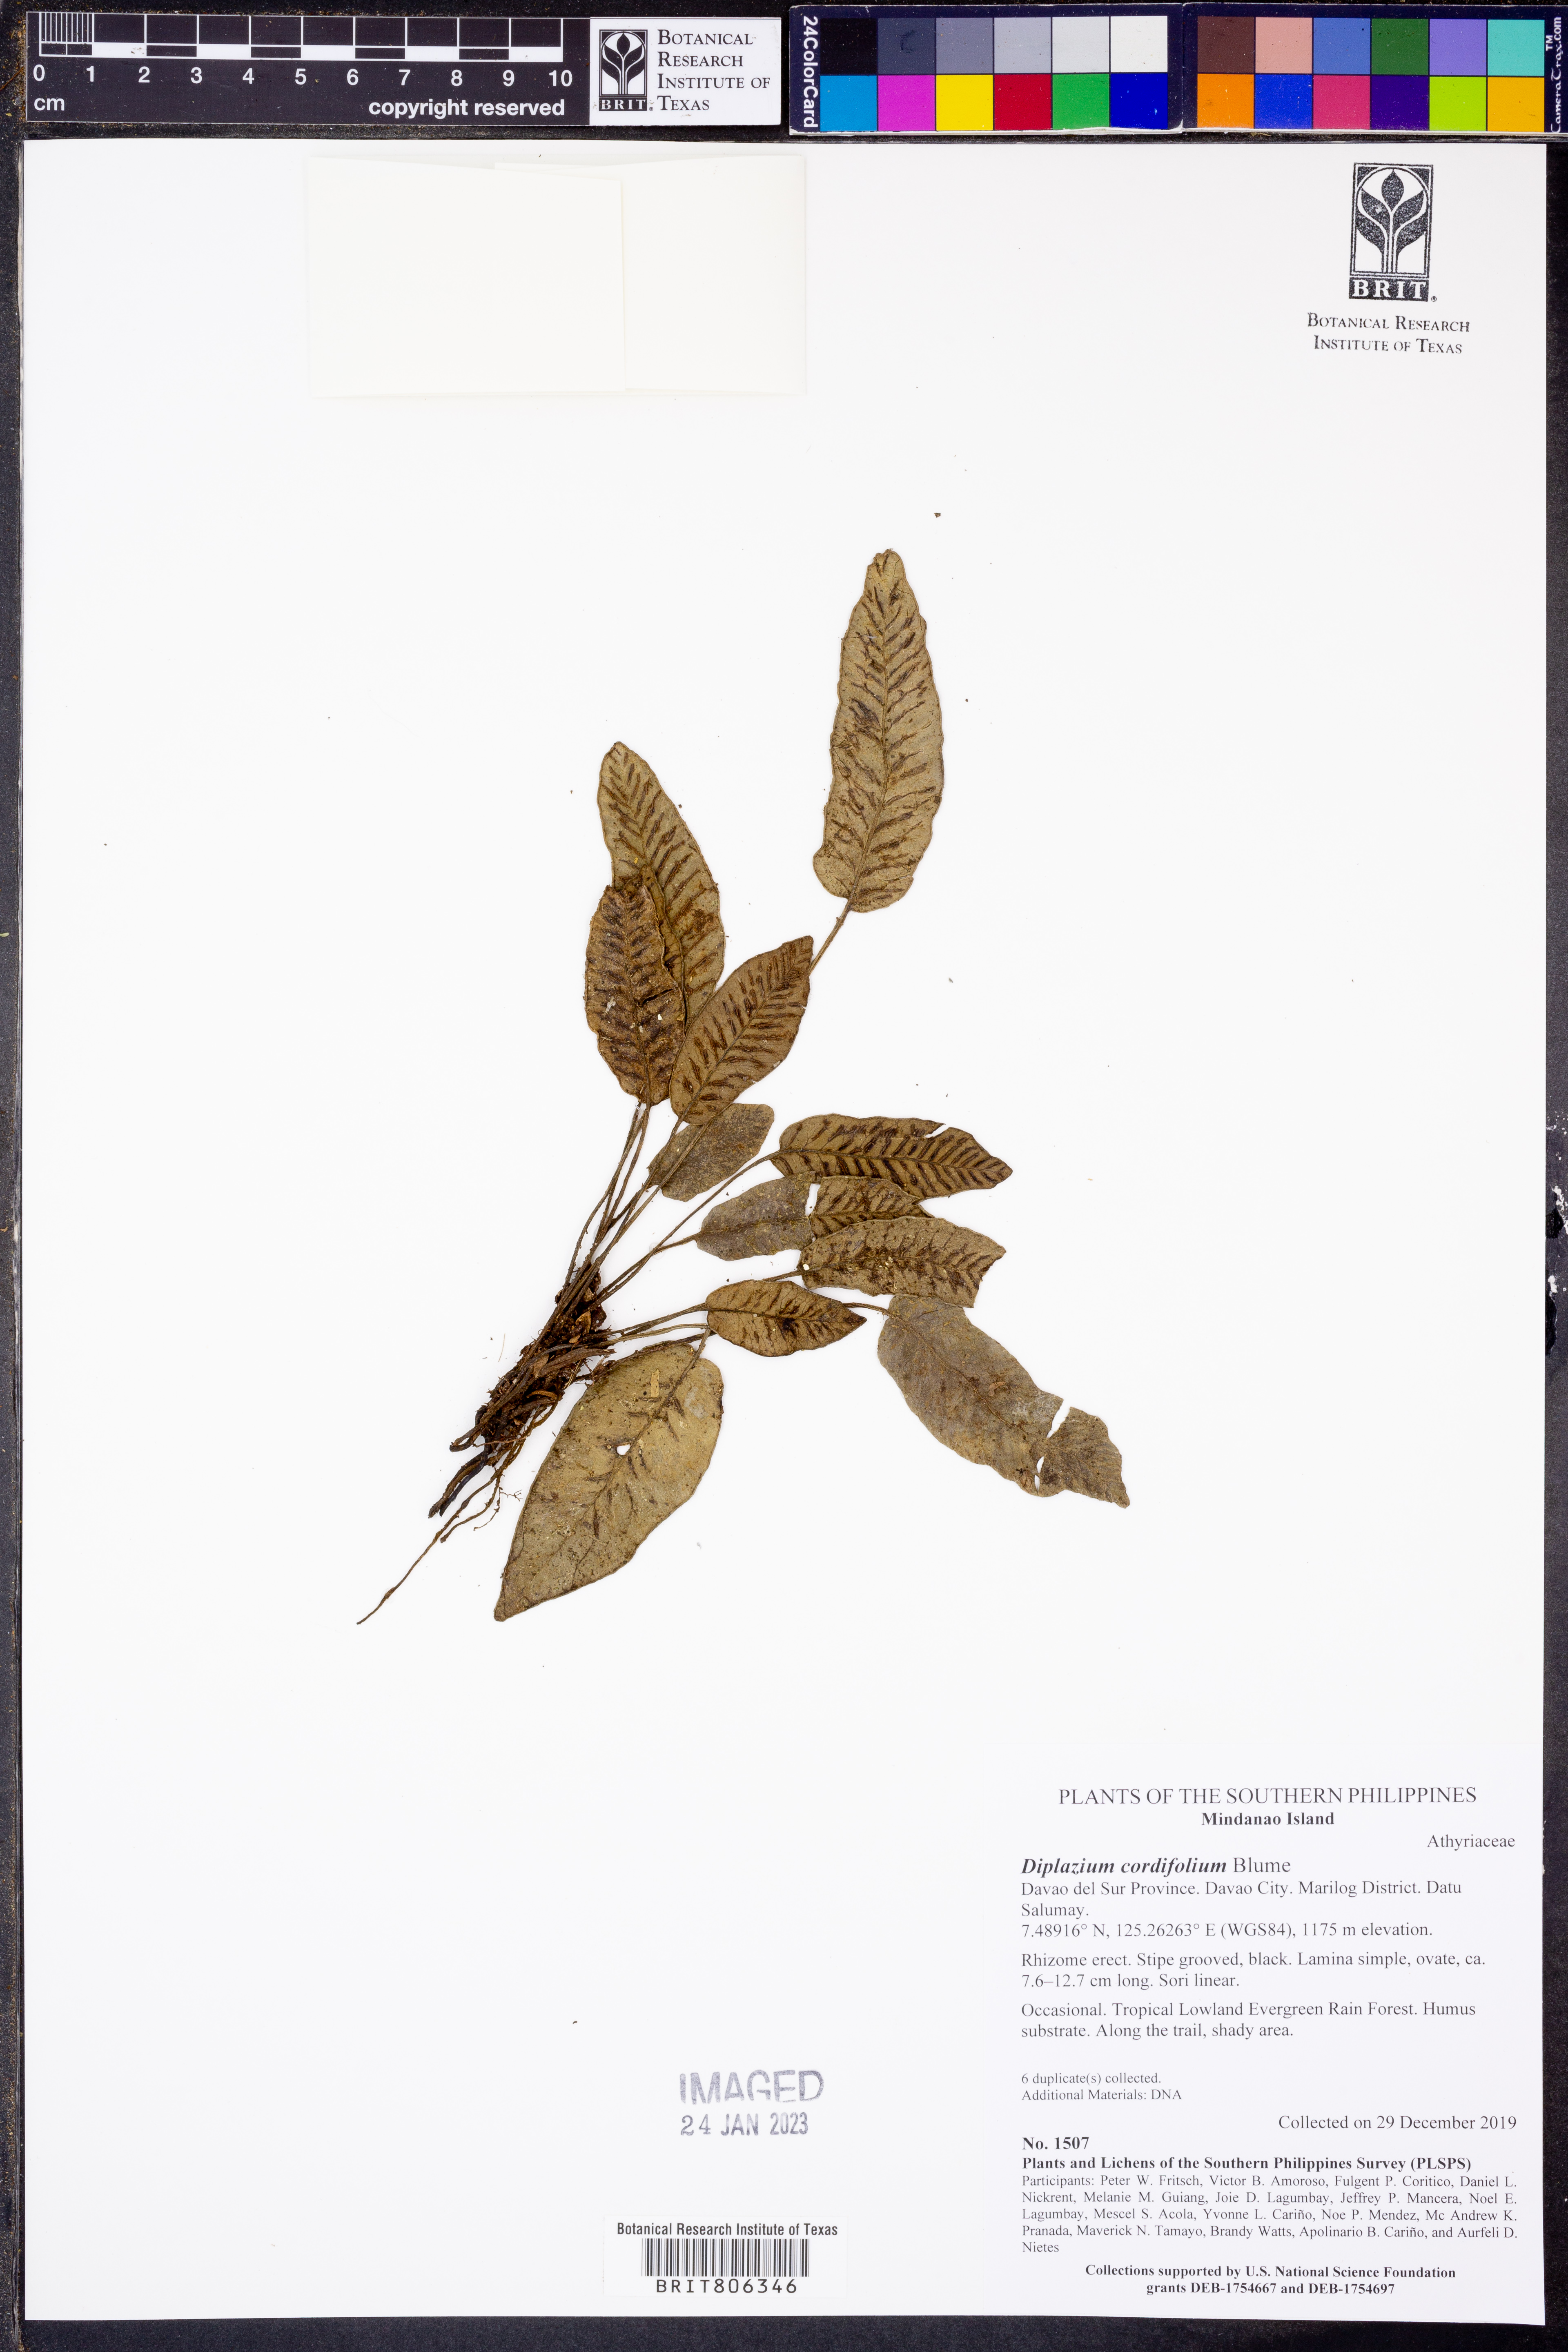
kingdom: Plantae
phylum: Tracheophyta
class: Polypodiopsida
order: Polypodiales
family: Athyriaceae
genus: Diplazium
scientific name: Diplazium cordifolium
